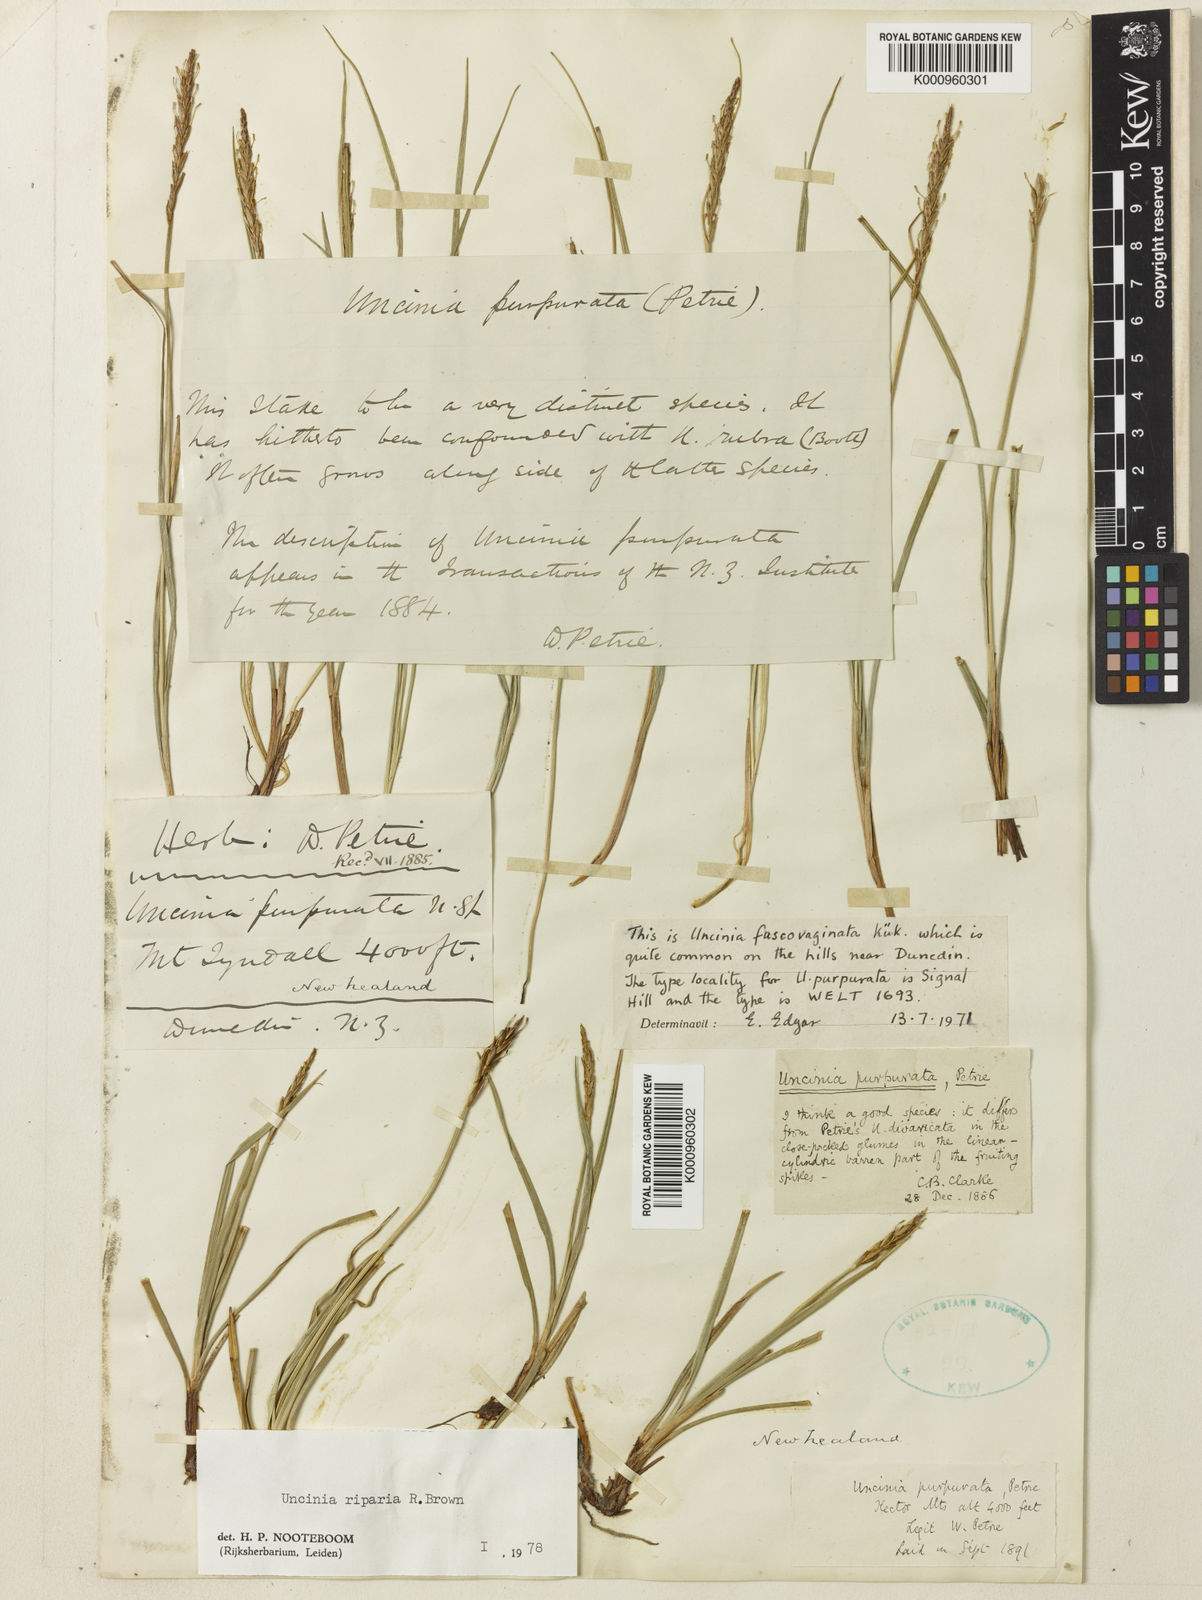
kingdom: Plantae
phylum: Tracheophyta
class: Liliopsida
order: Poales
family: Cyperaceae
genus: Carex
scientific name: Carex purpurata
